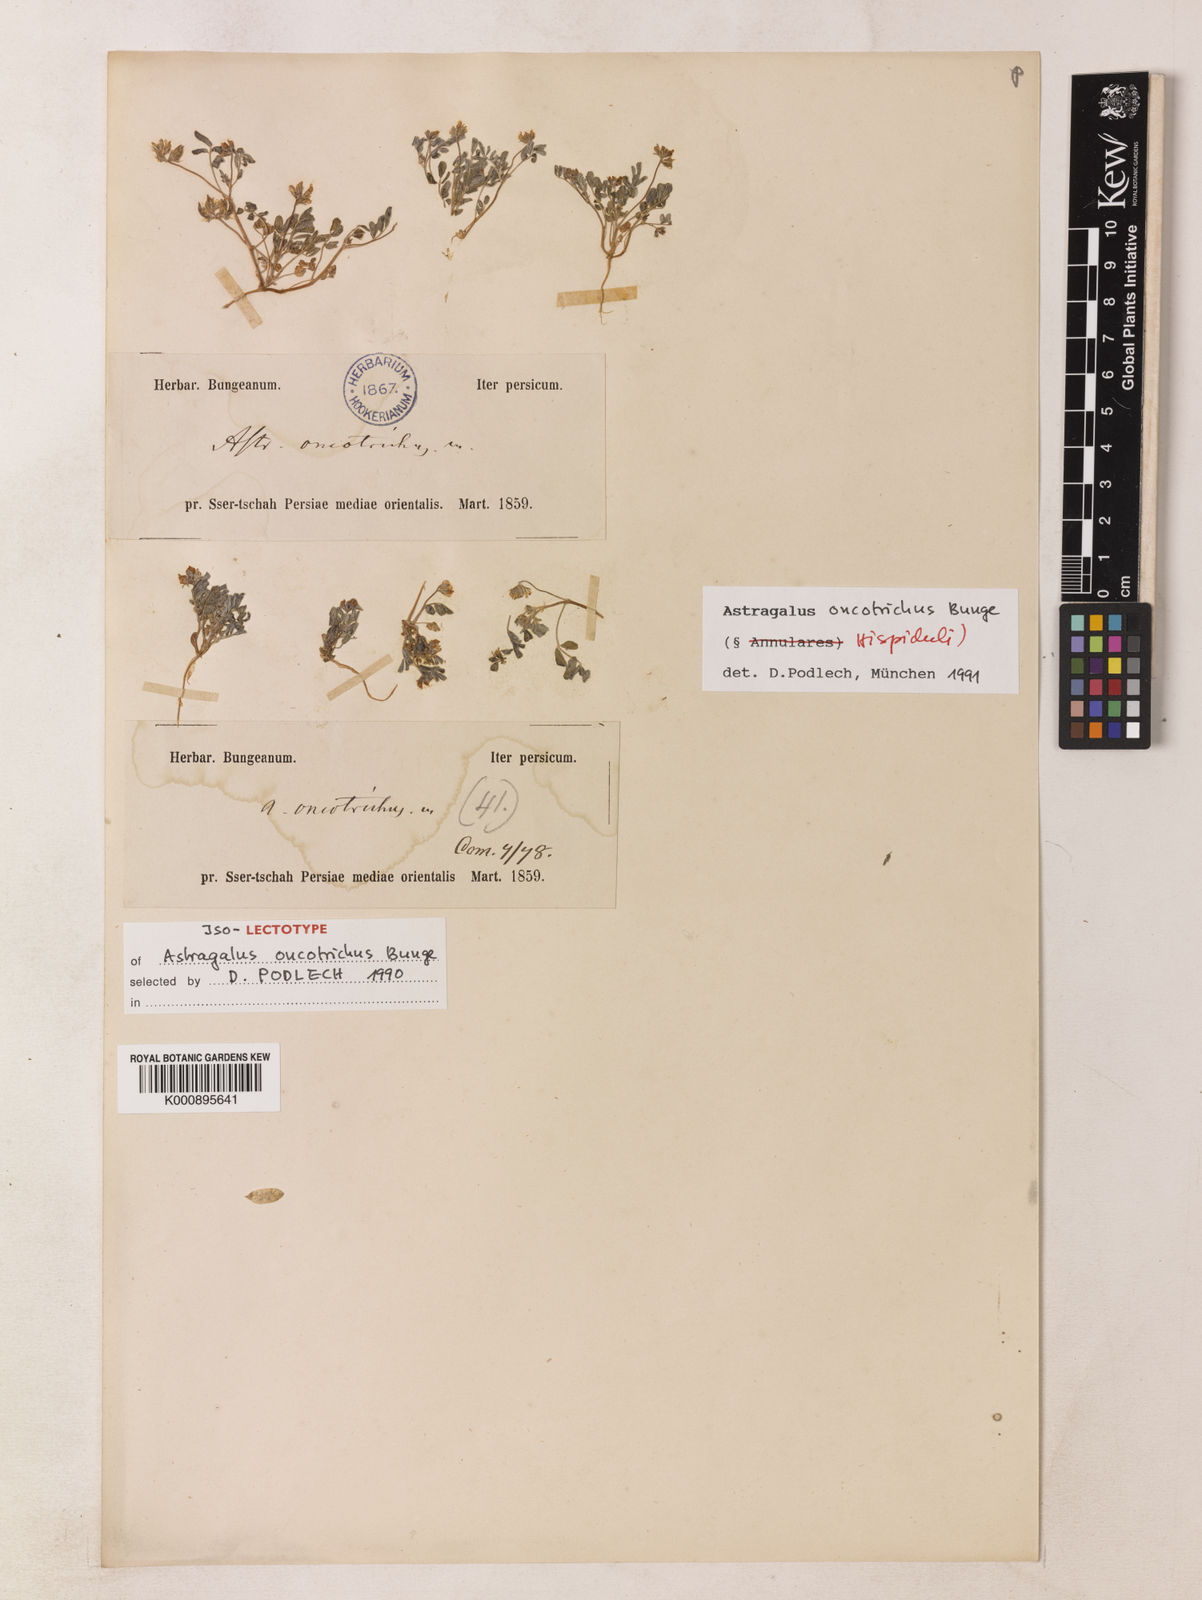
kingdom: Plantae
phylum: Tracheophyta
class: Magnoliopsida
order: Fabales
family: Fabaceae
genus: Astragalus
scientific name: Astragalus oncotrichus
